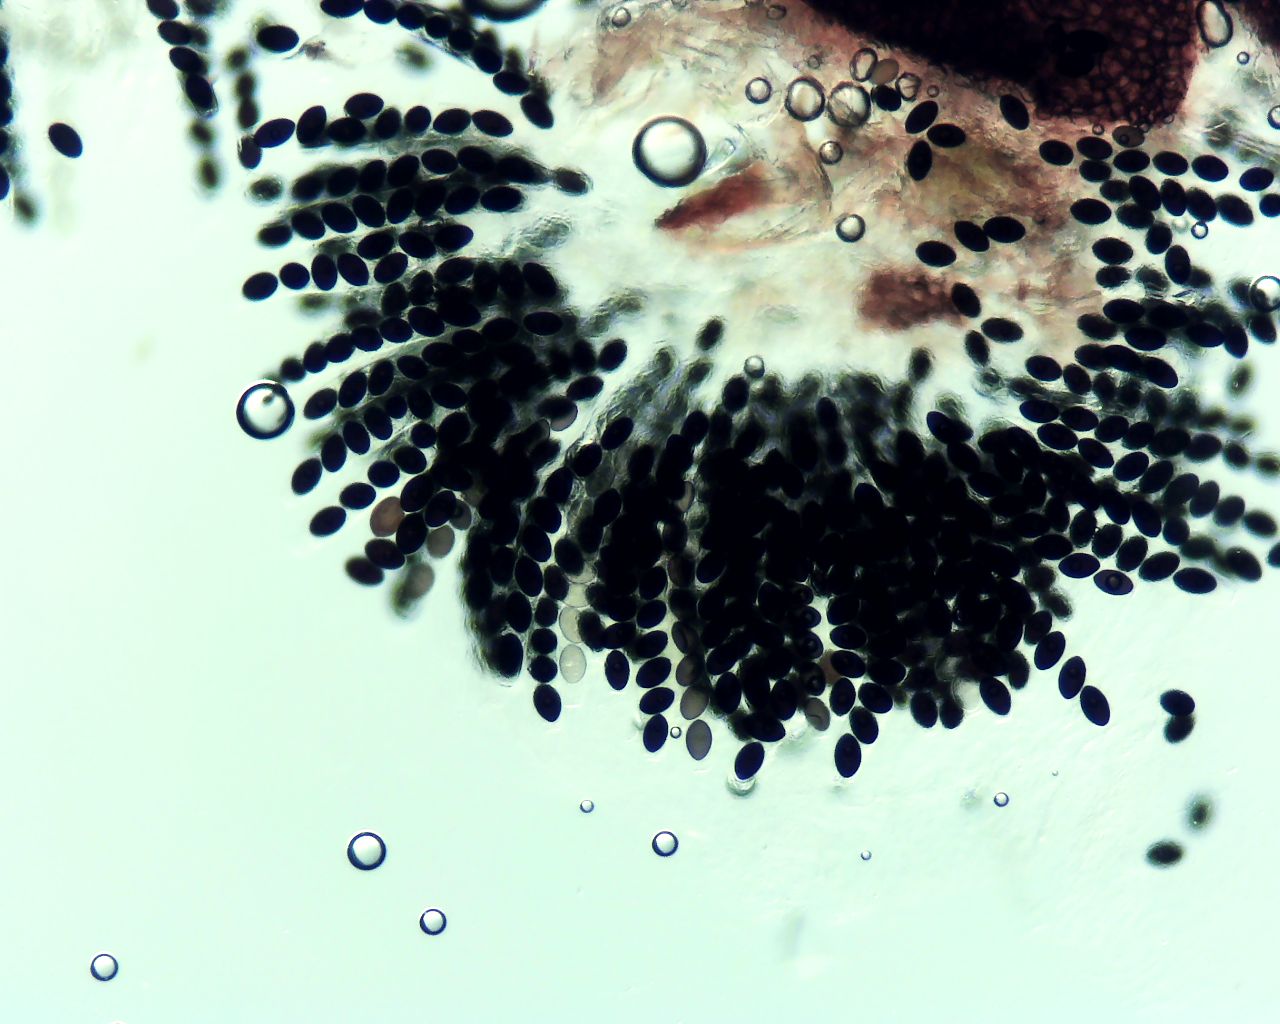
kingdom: Fungi
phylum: Ascomycota
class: Sordariomycetes
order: Sordariales
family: Sordariaceae
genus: Sordaria
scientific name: Sordaria
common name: kernesvamp
